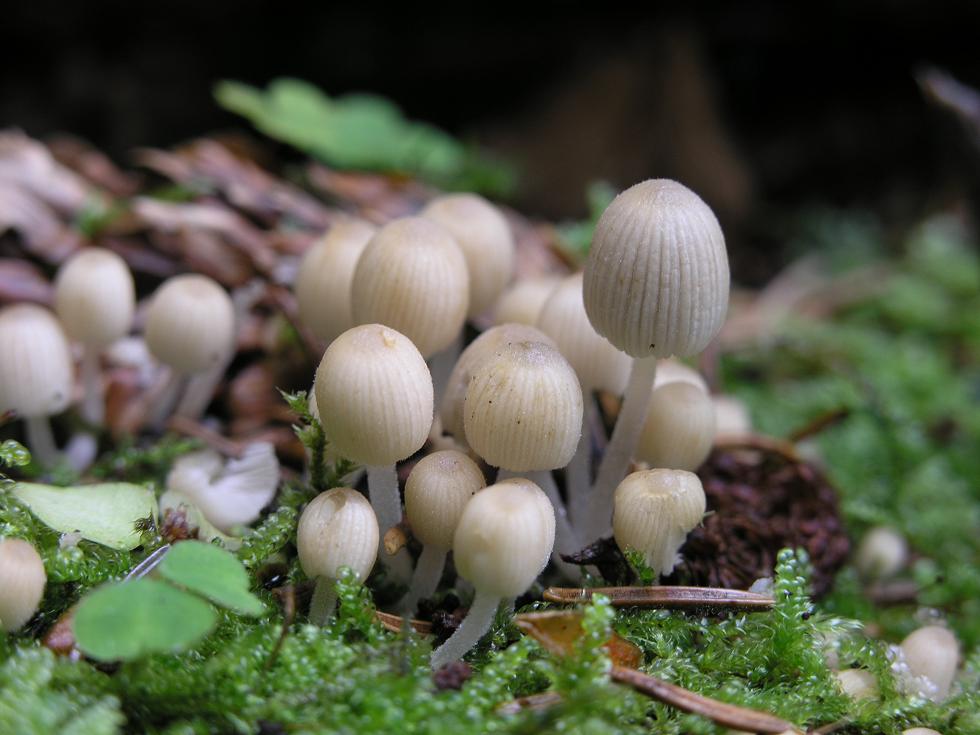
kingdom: Fungi
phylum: Basidiomycota
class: Agaricomycetes
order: Agaricales
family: Psathyrellaceae
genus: Coprinellus
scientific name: Coprinellus disseminatus
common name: bredsået blækhat
